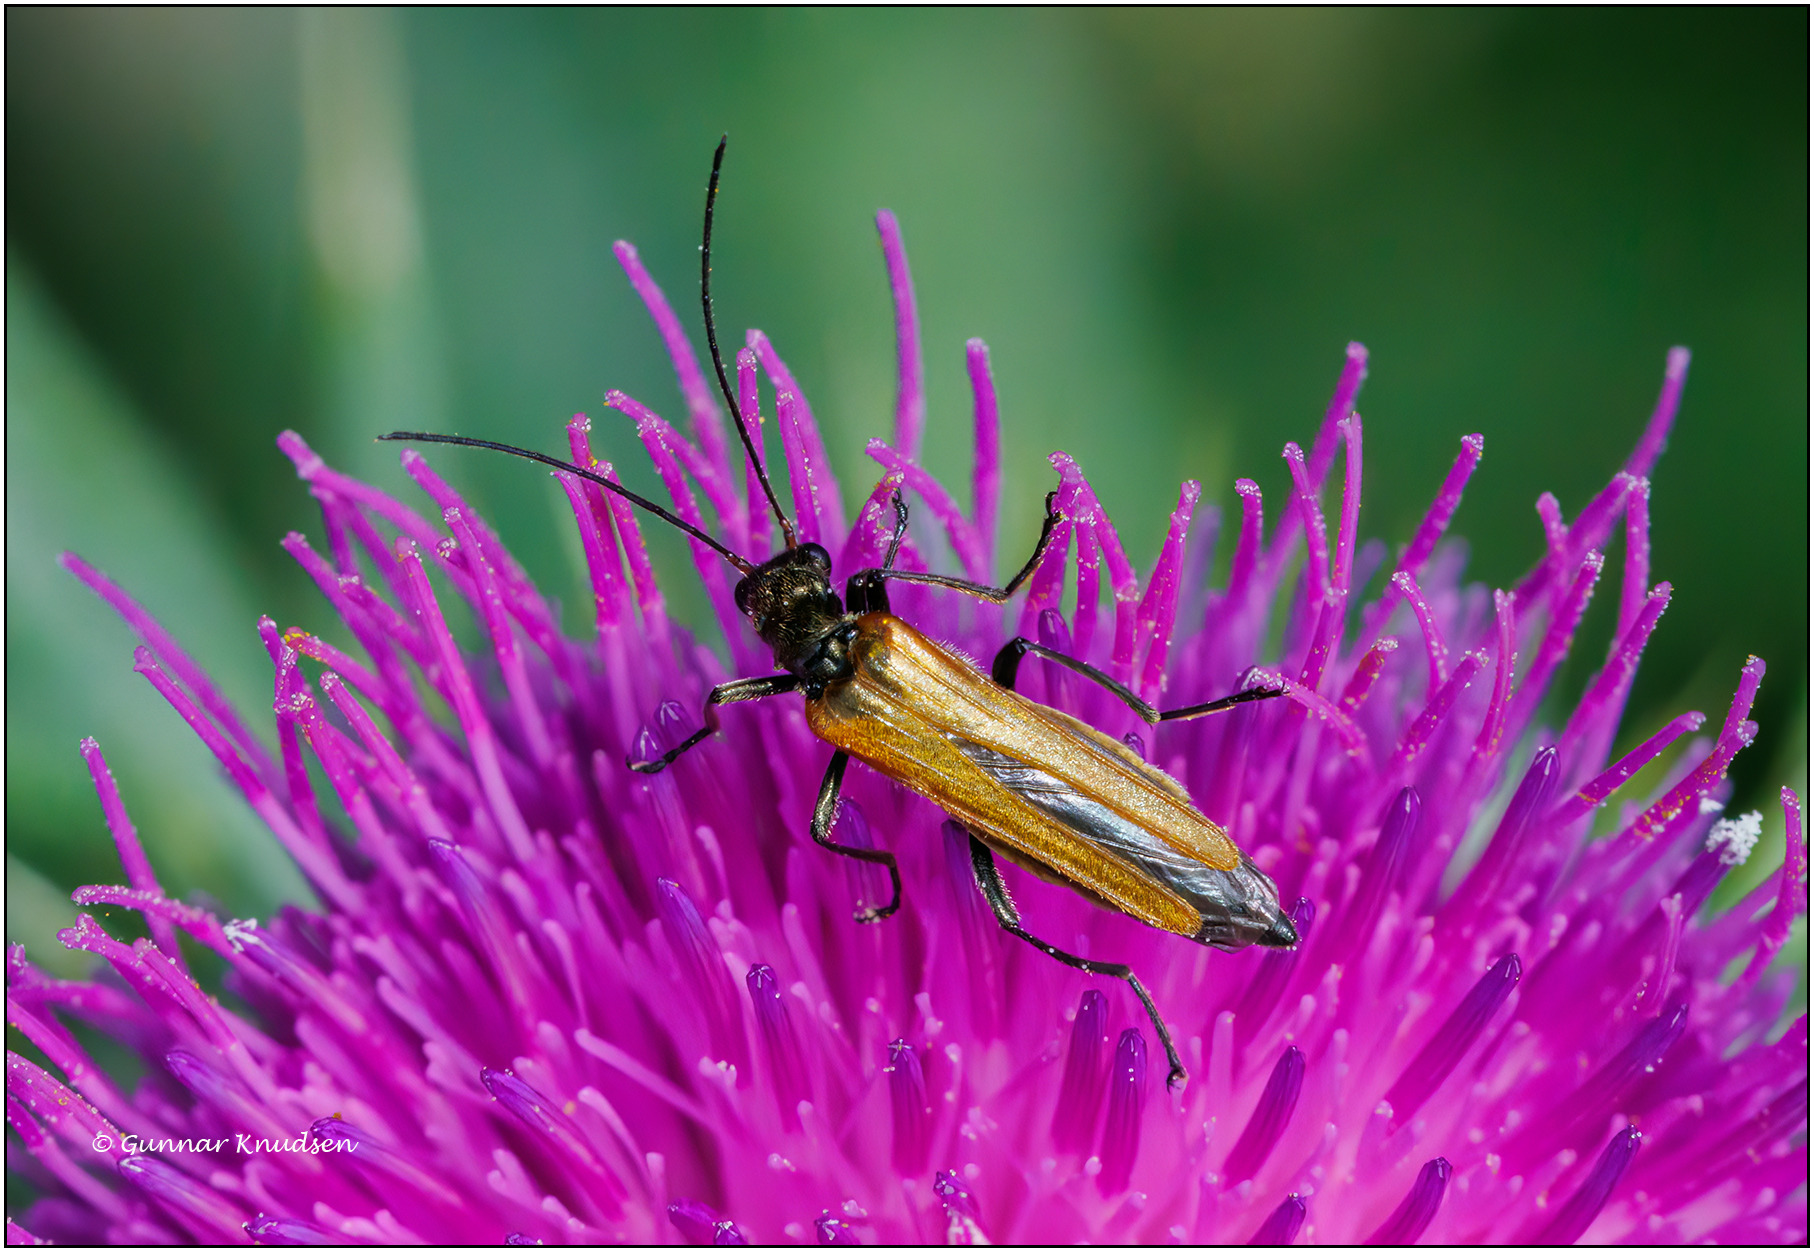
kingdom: Animalia
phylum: Arthropoda
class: Insecta
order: Coleoptera
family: Oedemeridae
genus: Oedemera
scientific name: Oedemera femorata
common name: Gulvinget solbille
